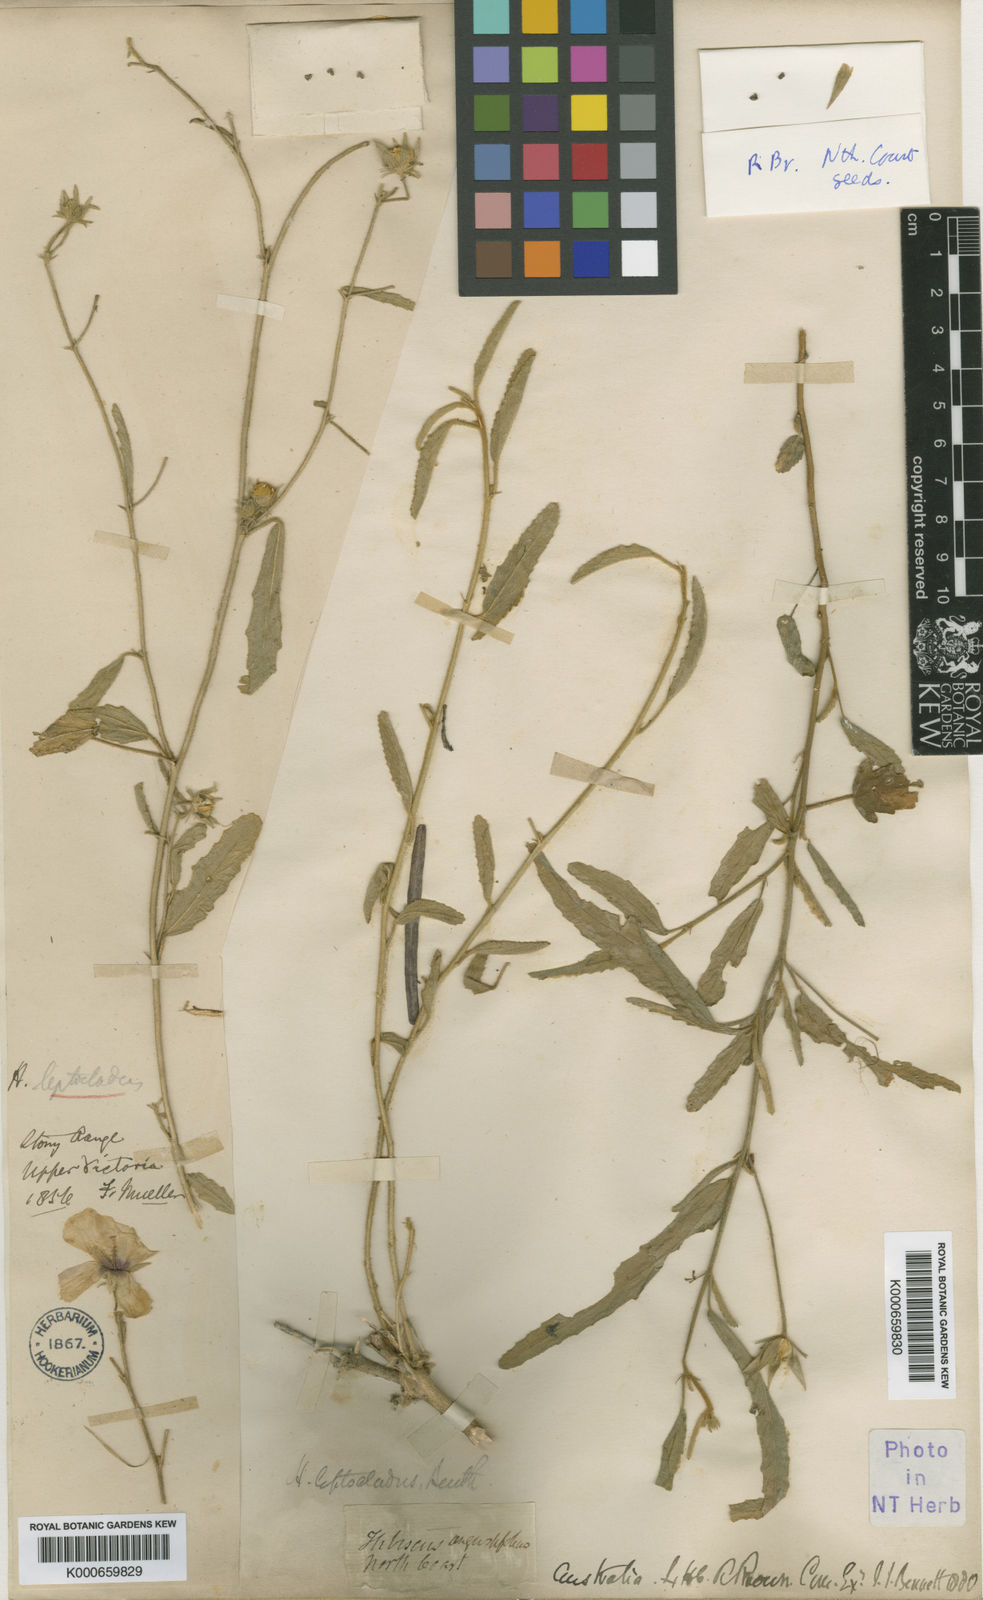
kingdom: Plantae
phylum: Tracheophyta
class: Magnoliopsida
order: Malvales
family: Malvaceae
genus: Hibiscus
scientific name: Hibiscus leptocladus
